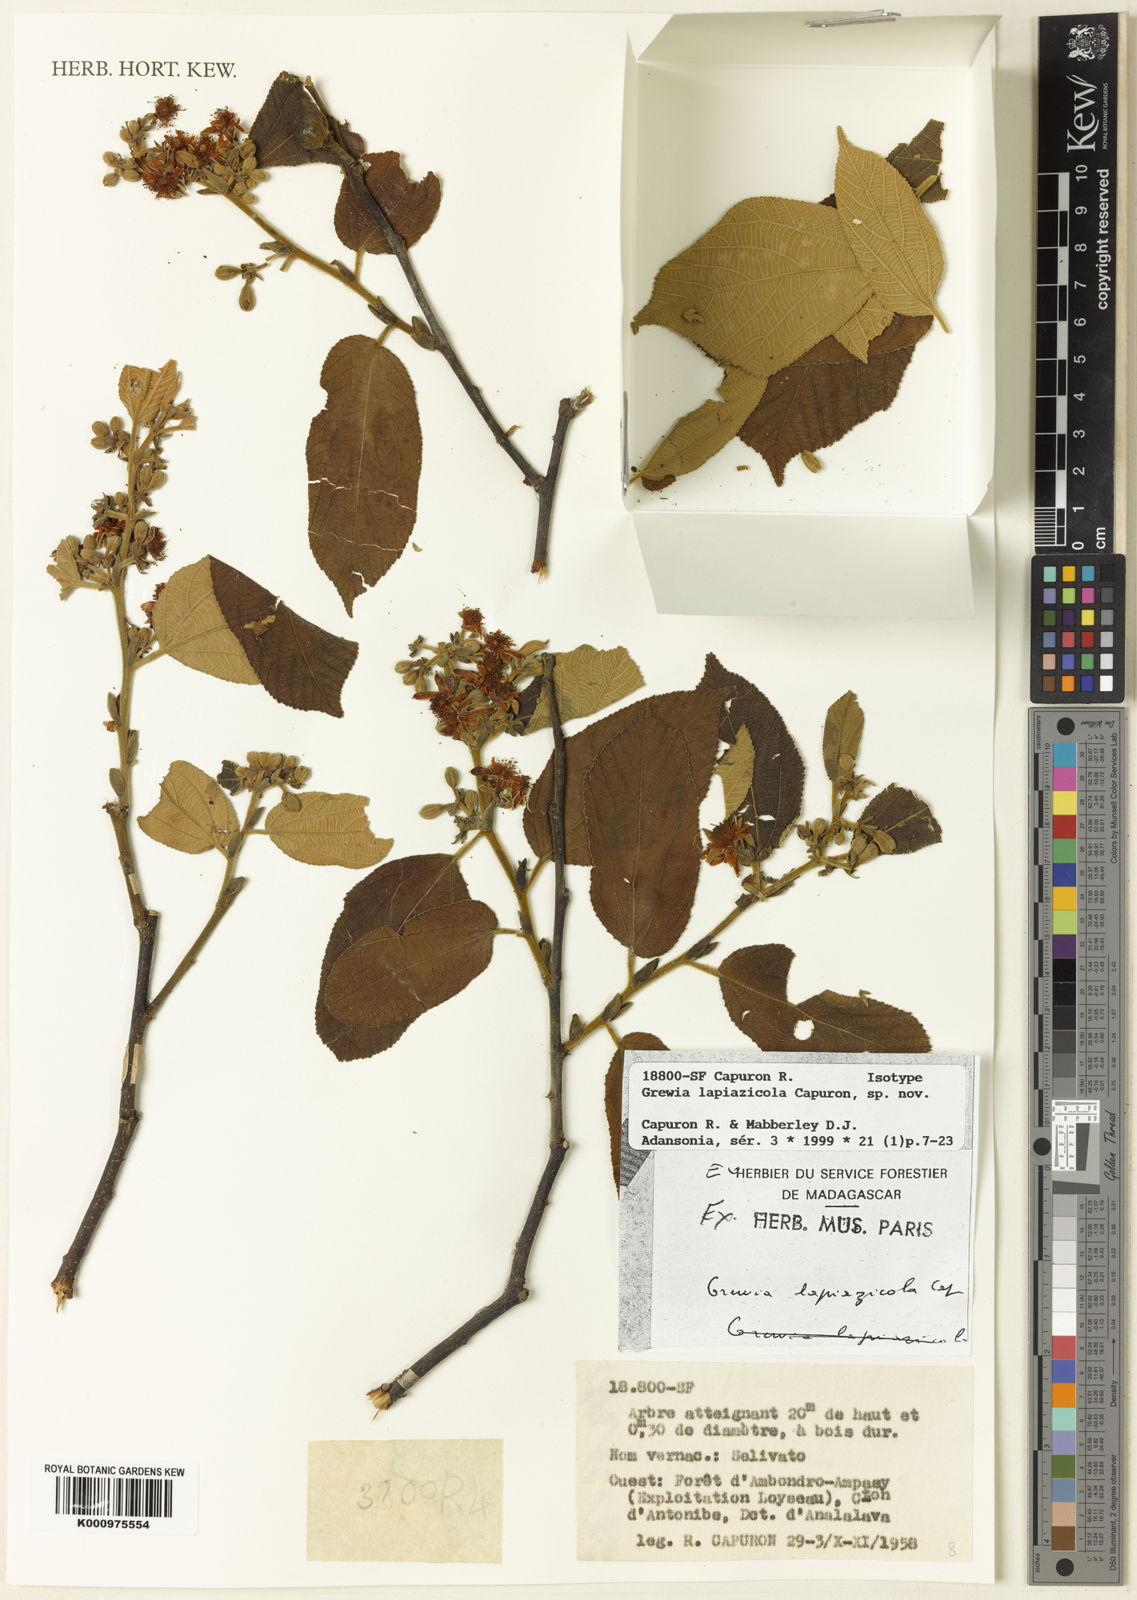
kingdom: Plantae
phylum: Tracheophyta
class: Magnoliopsida
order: Malvales
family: Malvaceae
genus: Grewia
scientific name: Grewia lapiazicola
